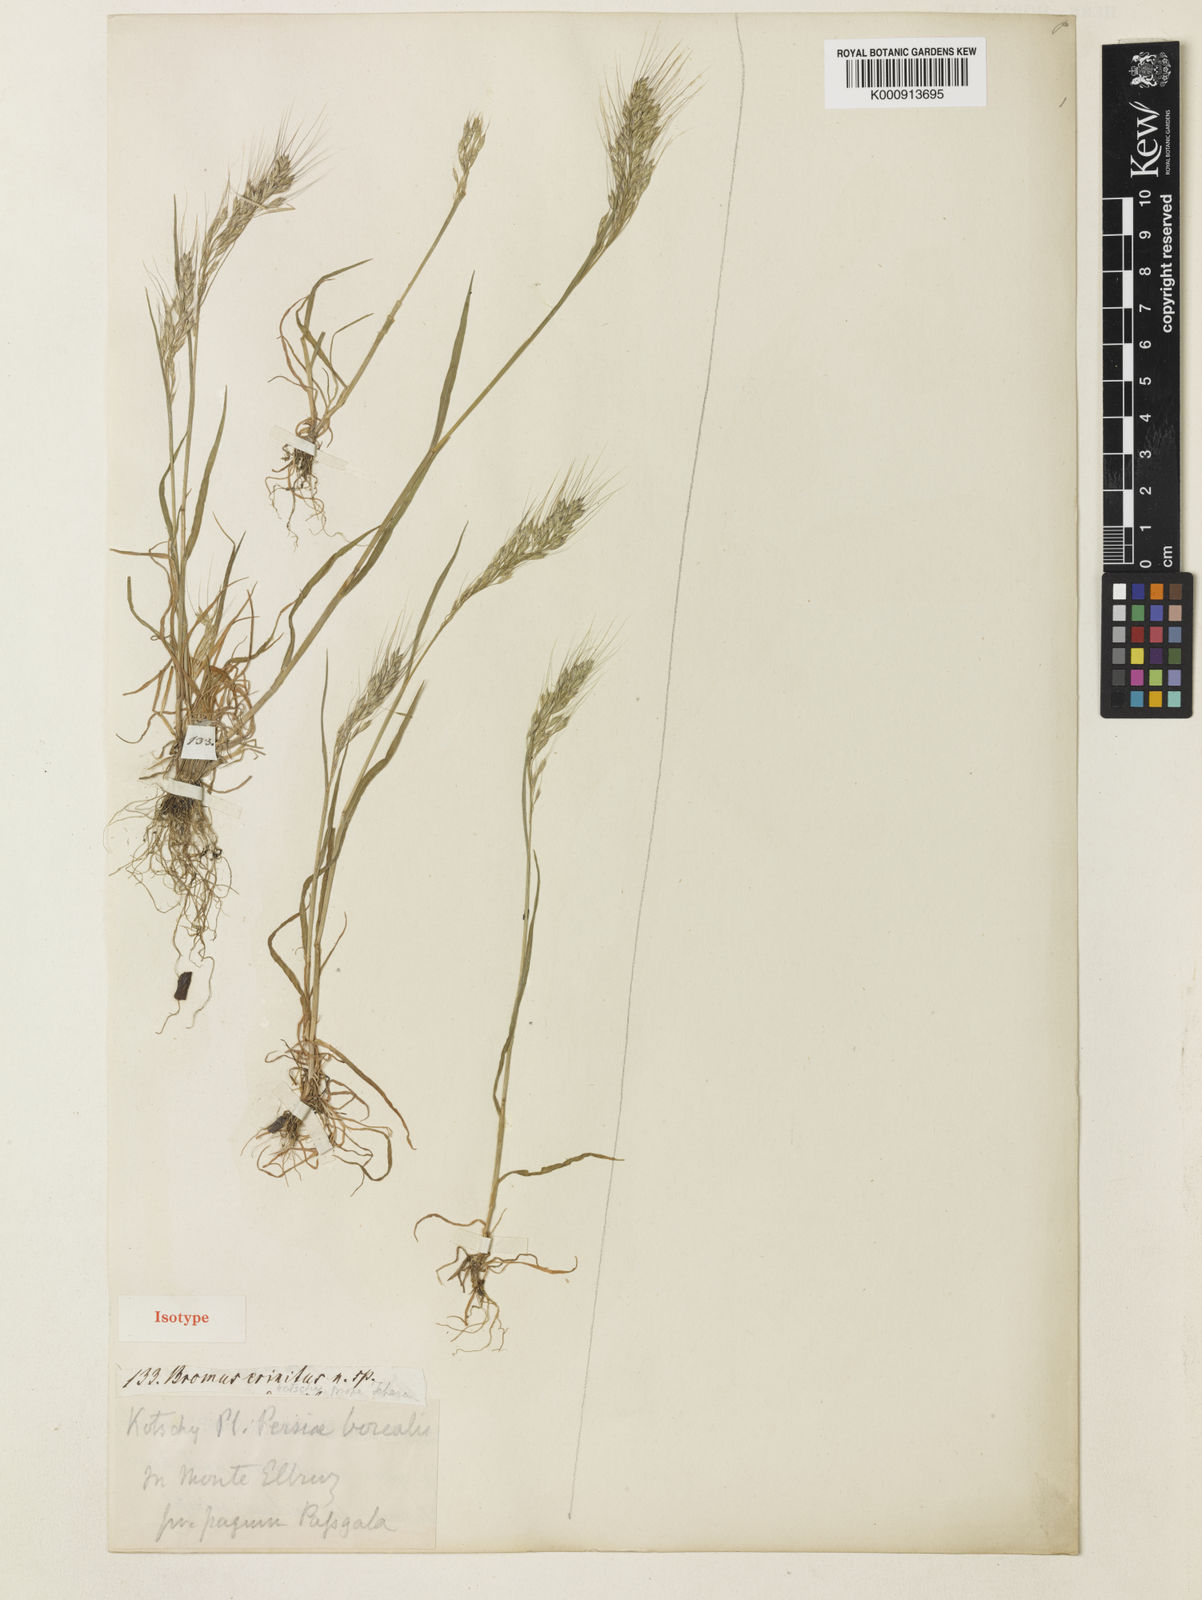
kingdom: Plantae
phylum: Tracheophyta
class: Liliopsida
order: Poales
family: Poaceae
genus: Bromus
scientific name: Bromus gracillimus
